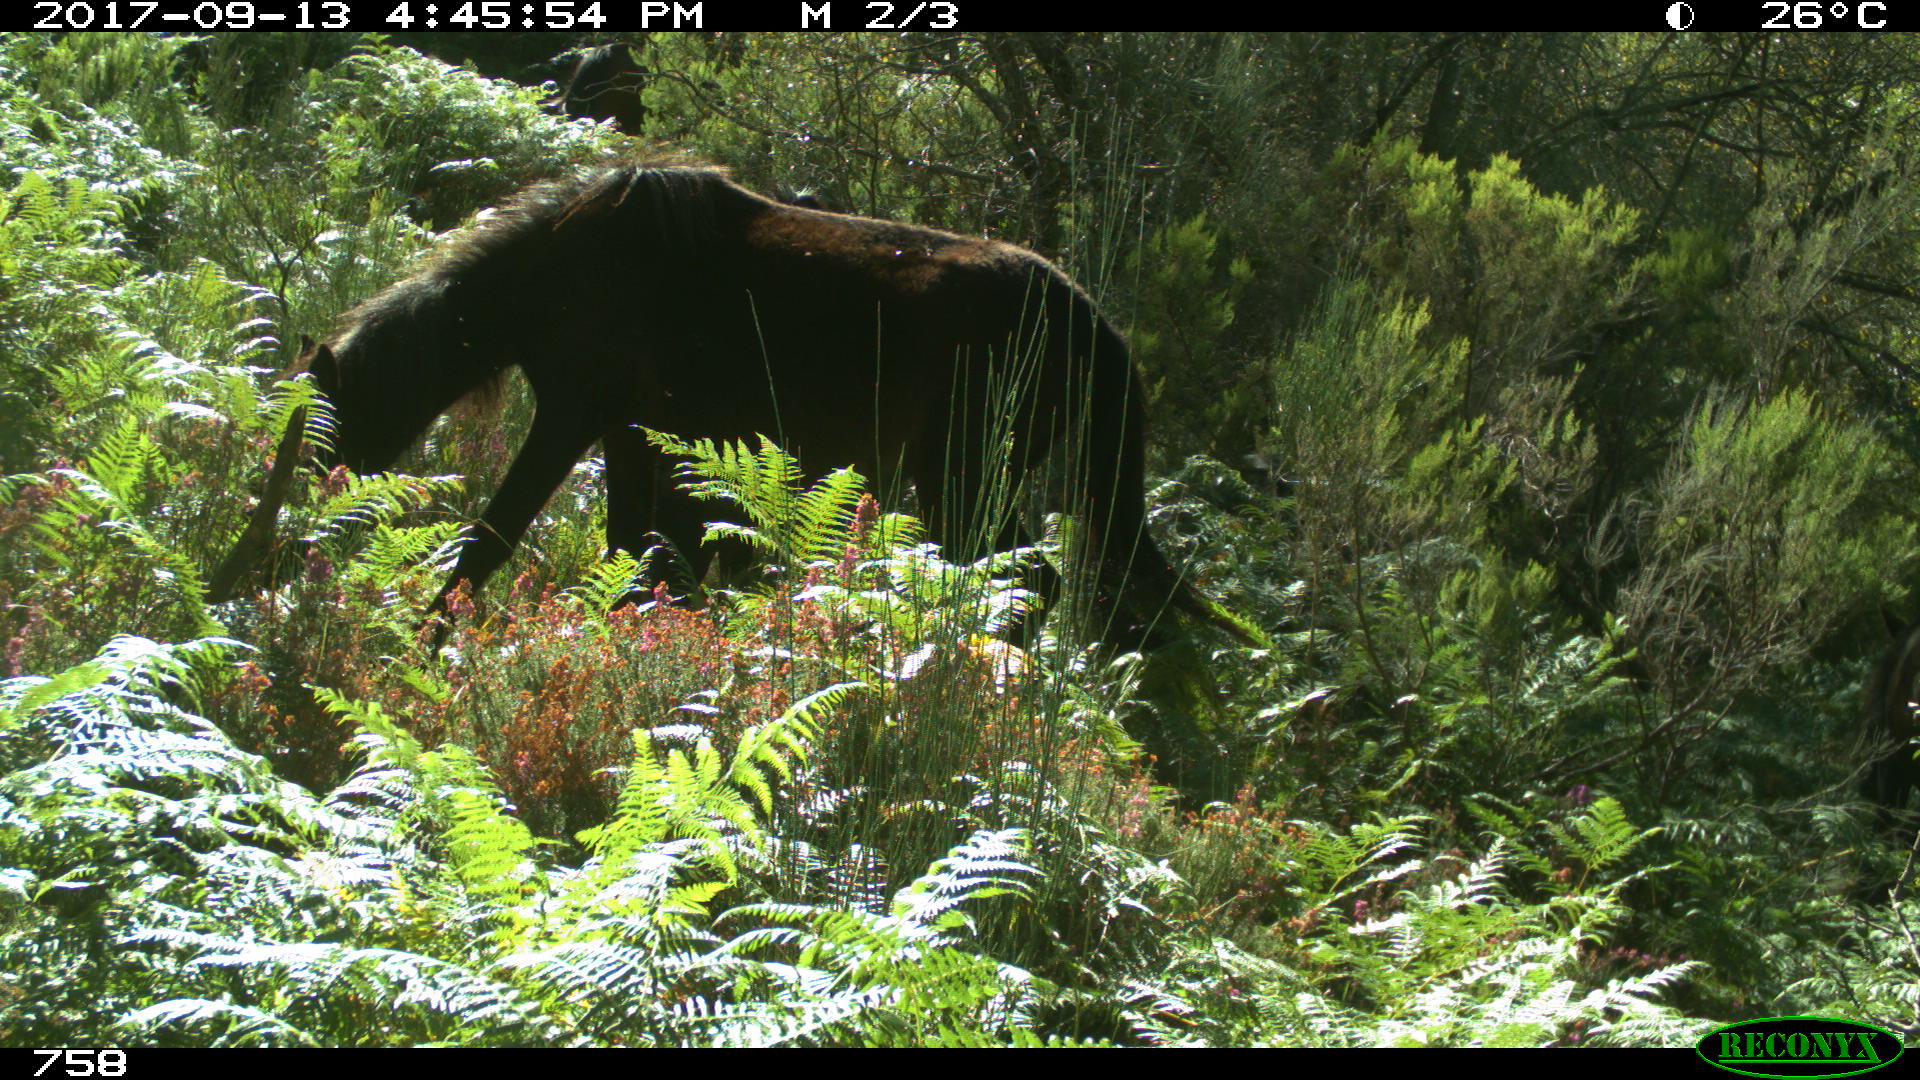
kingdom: Animalia
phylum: Chordata
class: Mammalia
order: Perissodactyla
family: Equidae
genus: Equus
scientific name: Equus caballus
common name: Horse
